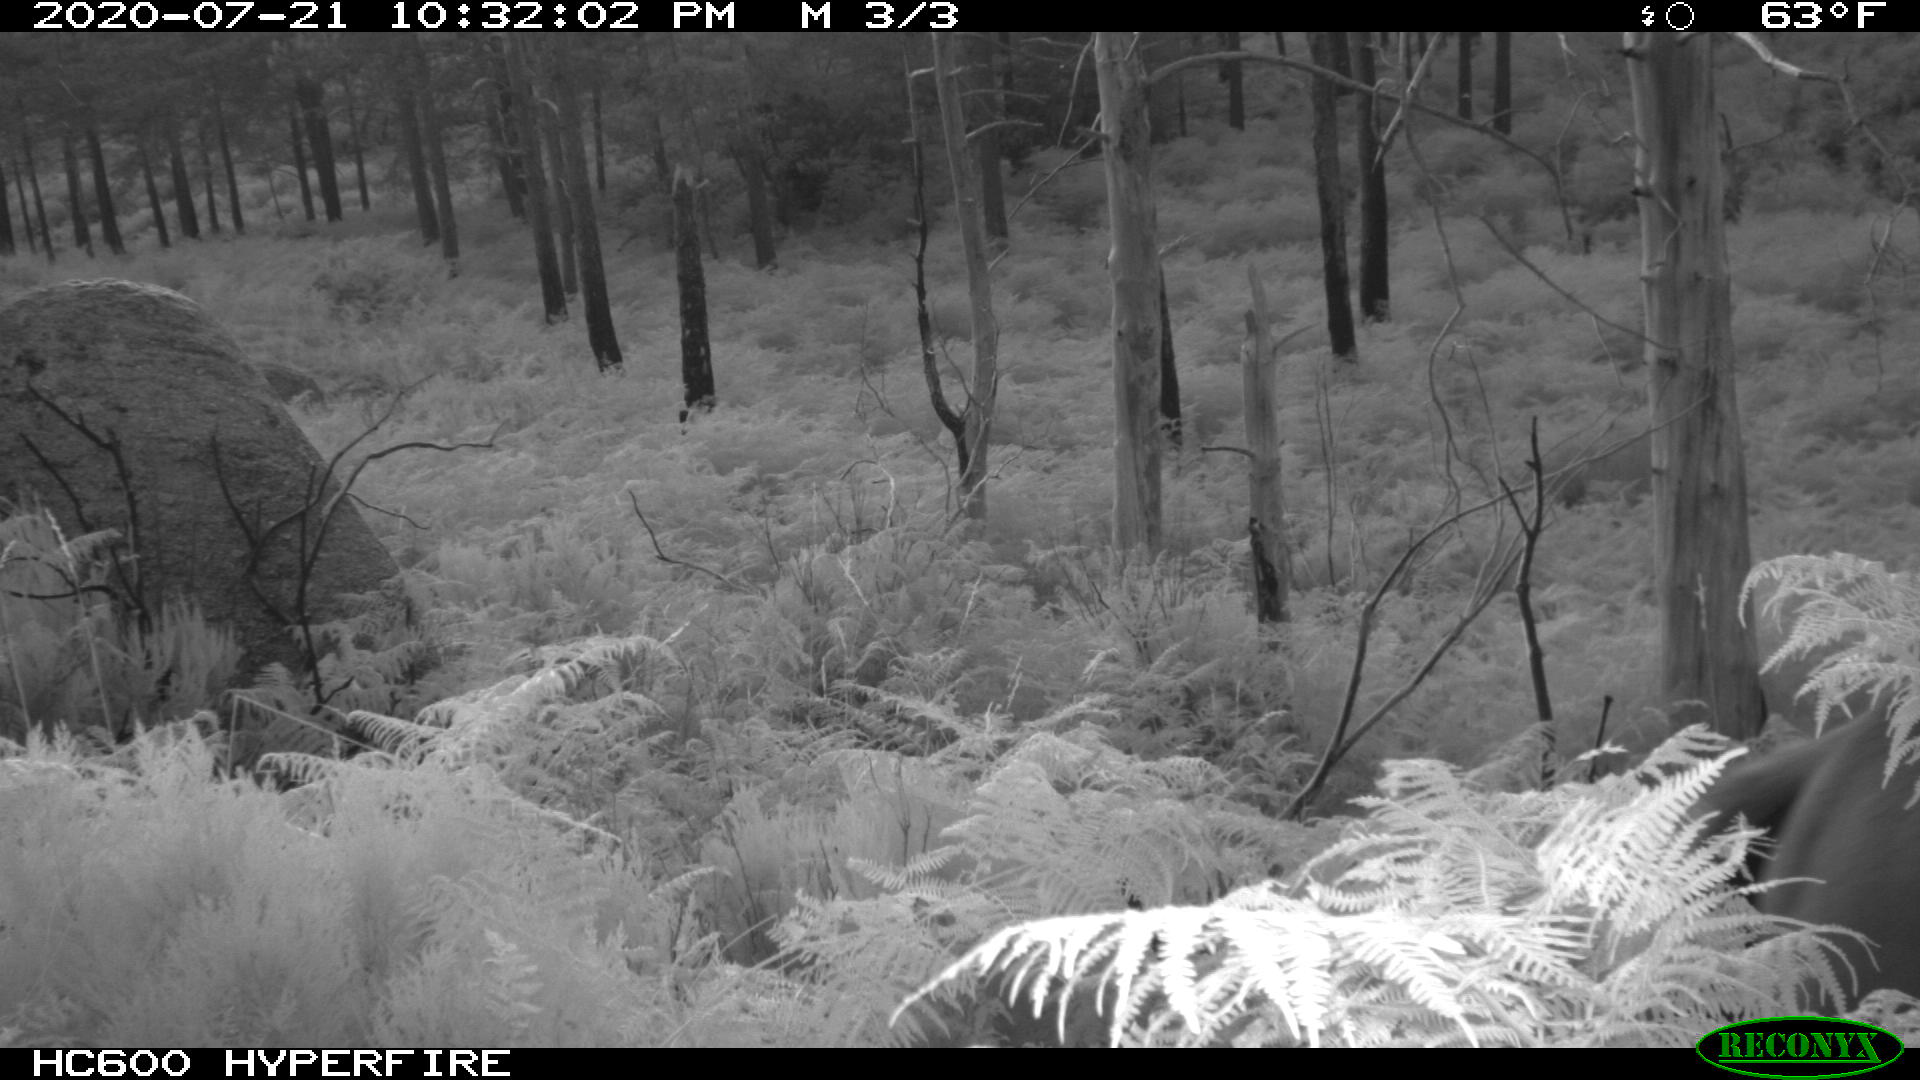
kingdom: Animalia
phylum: Chordata
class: Mammalia
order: Perissodactyla
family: Equidae
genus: Equus
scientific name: Equus caballus
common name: Horse
